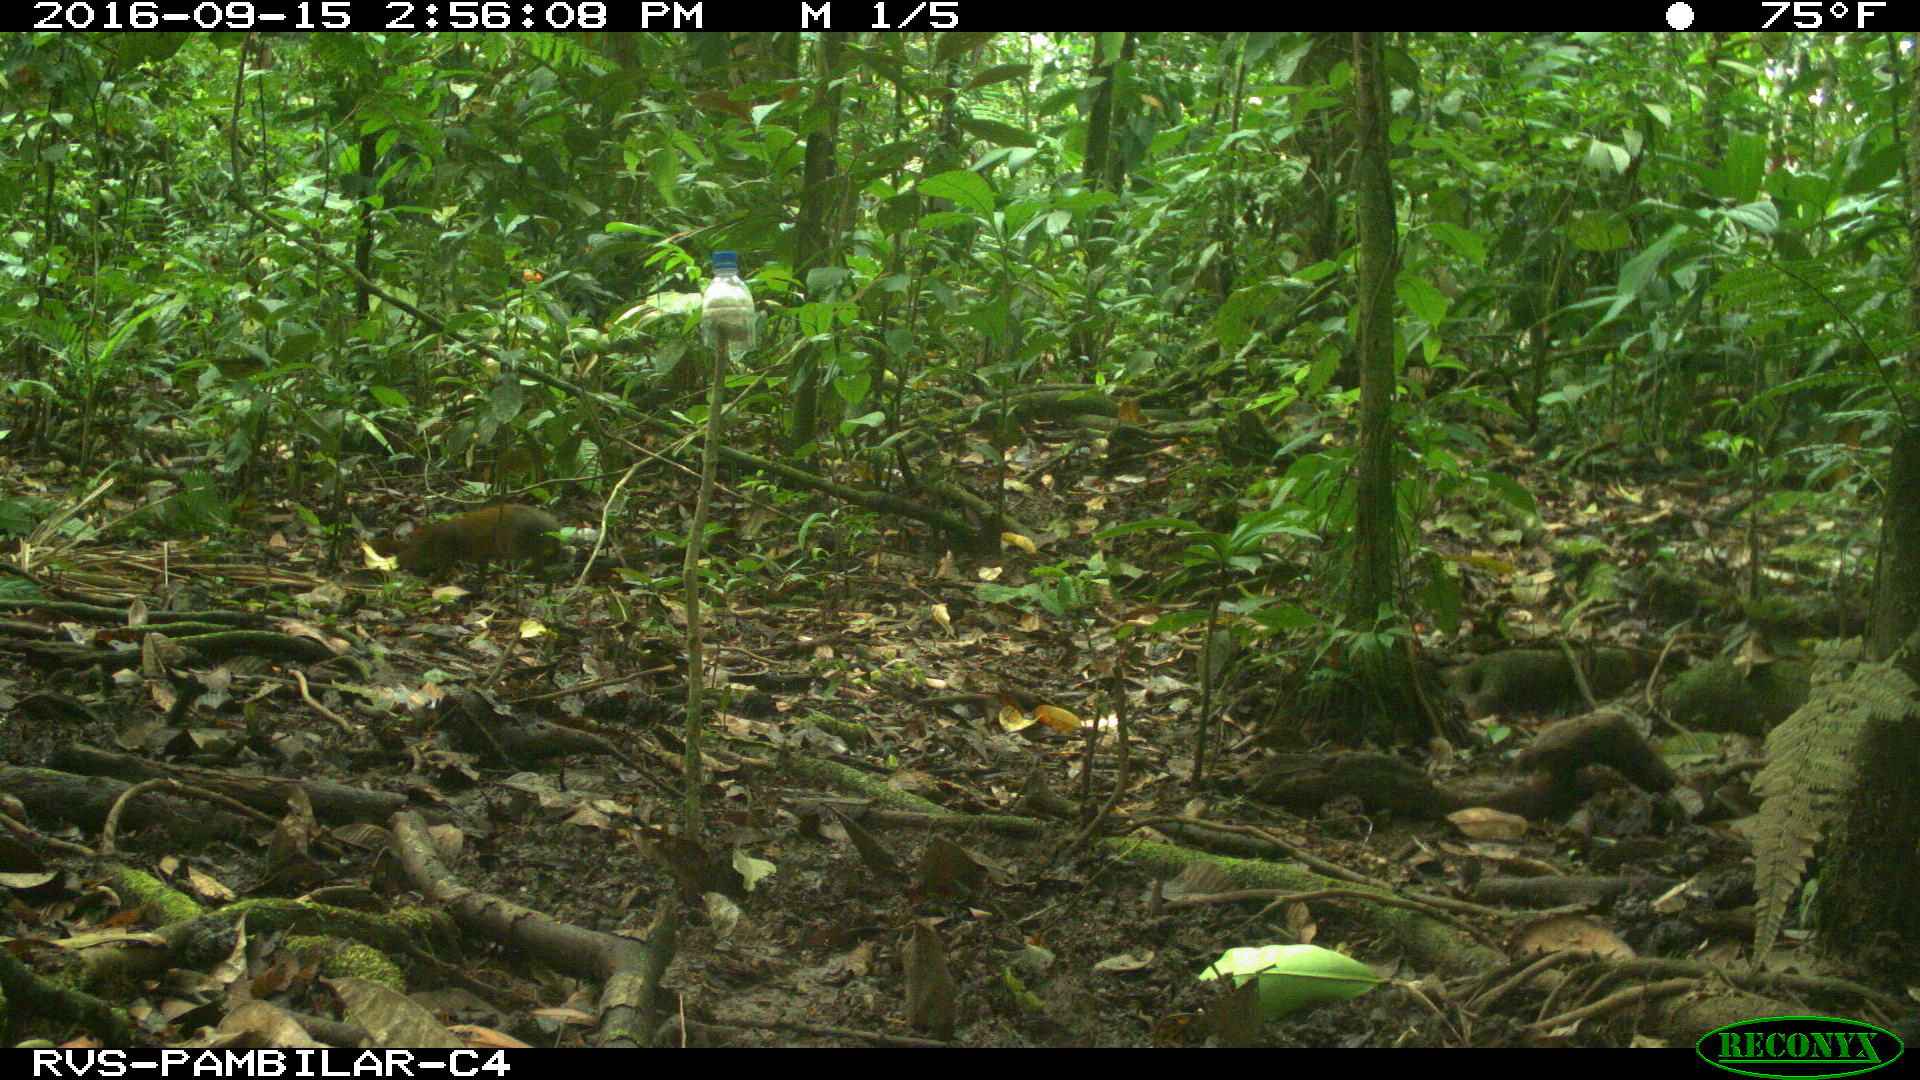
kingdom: Animalia
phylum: Chordata
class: Mammalia
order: Rodentia
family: Dasyproctidae
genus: Dasyprocta
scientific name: Dasyprocta punctata
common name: Central american agouti
